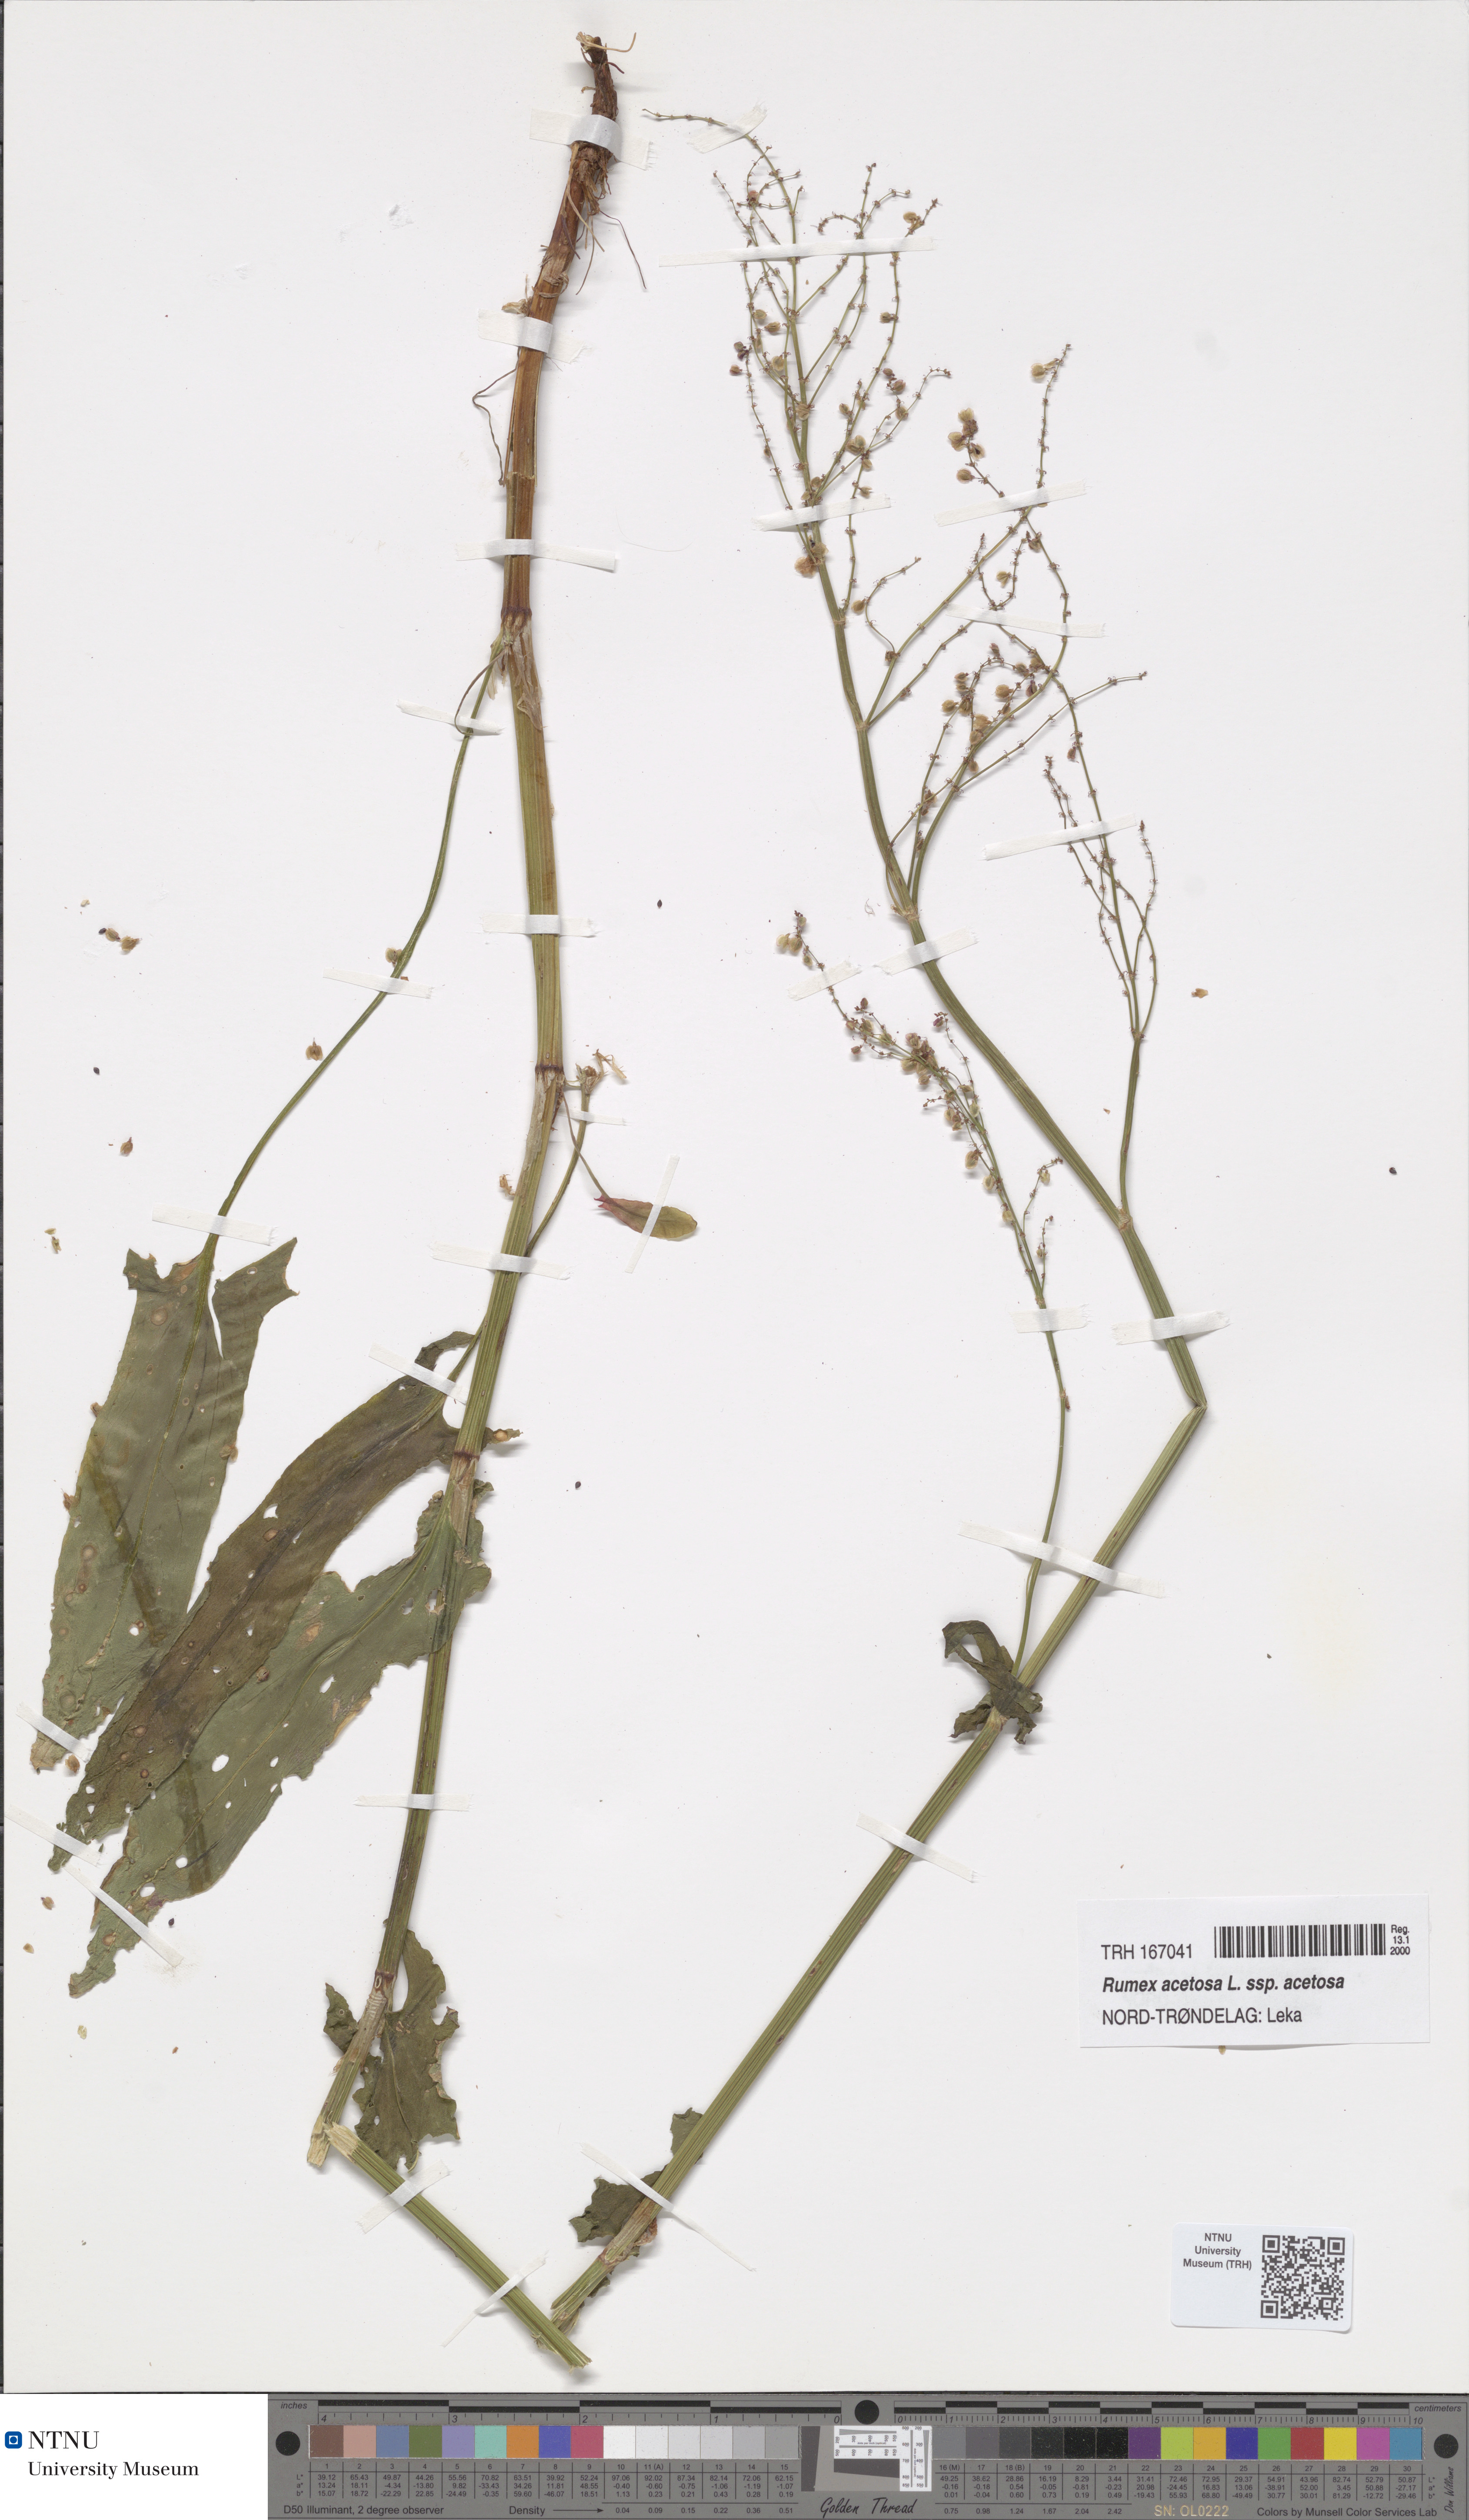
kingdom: Plantae
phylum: Tracheophyta
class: Magnoliopsida
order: Caryophyllales
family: Polygonaceae
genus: Rumex
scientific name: Rumex acetosa
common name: Garden sorrel
